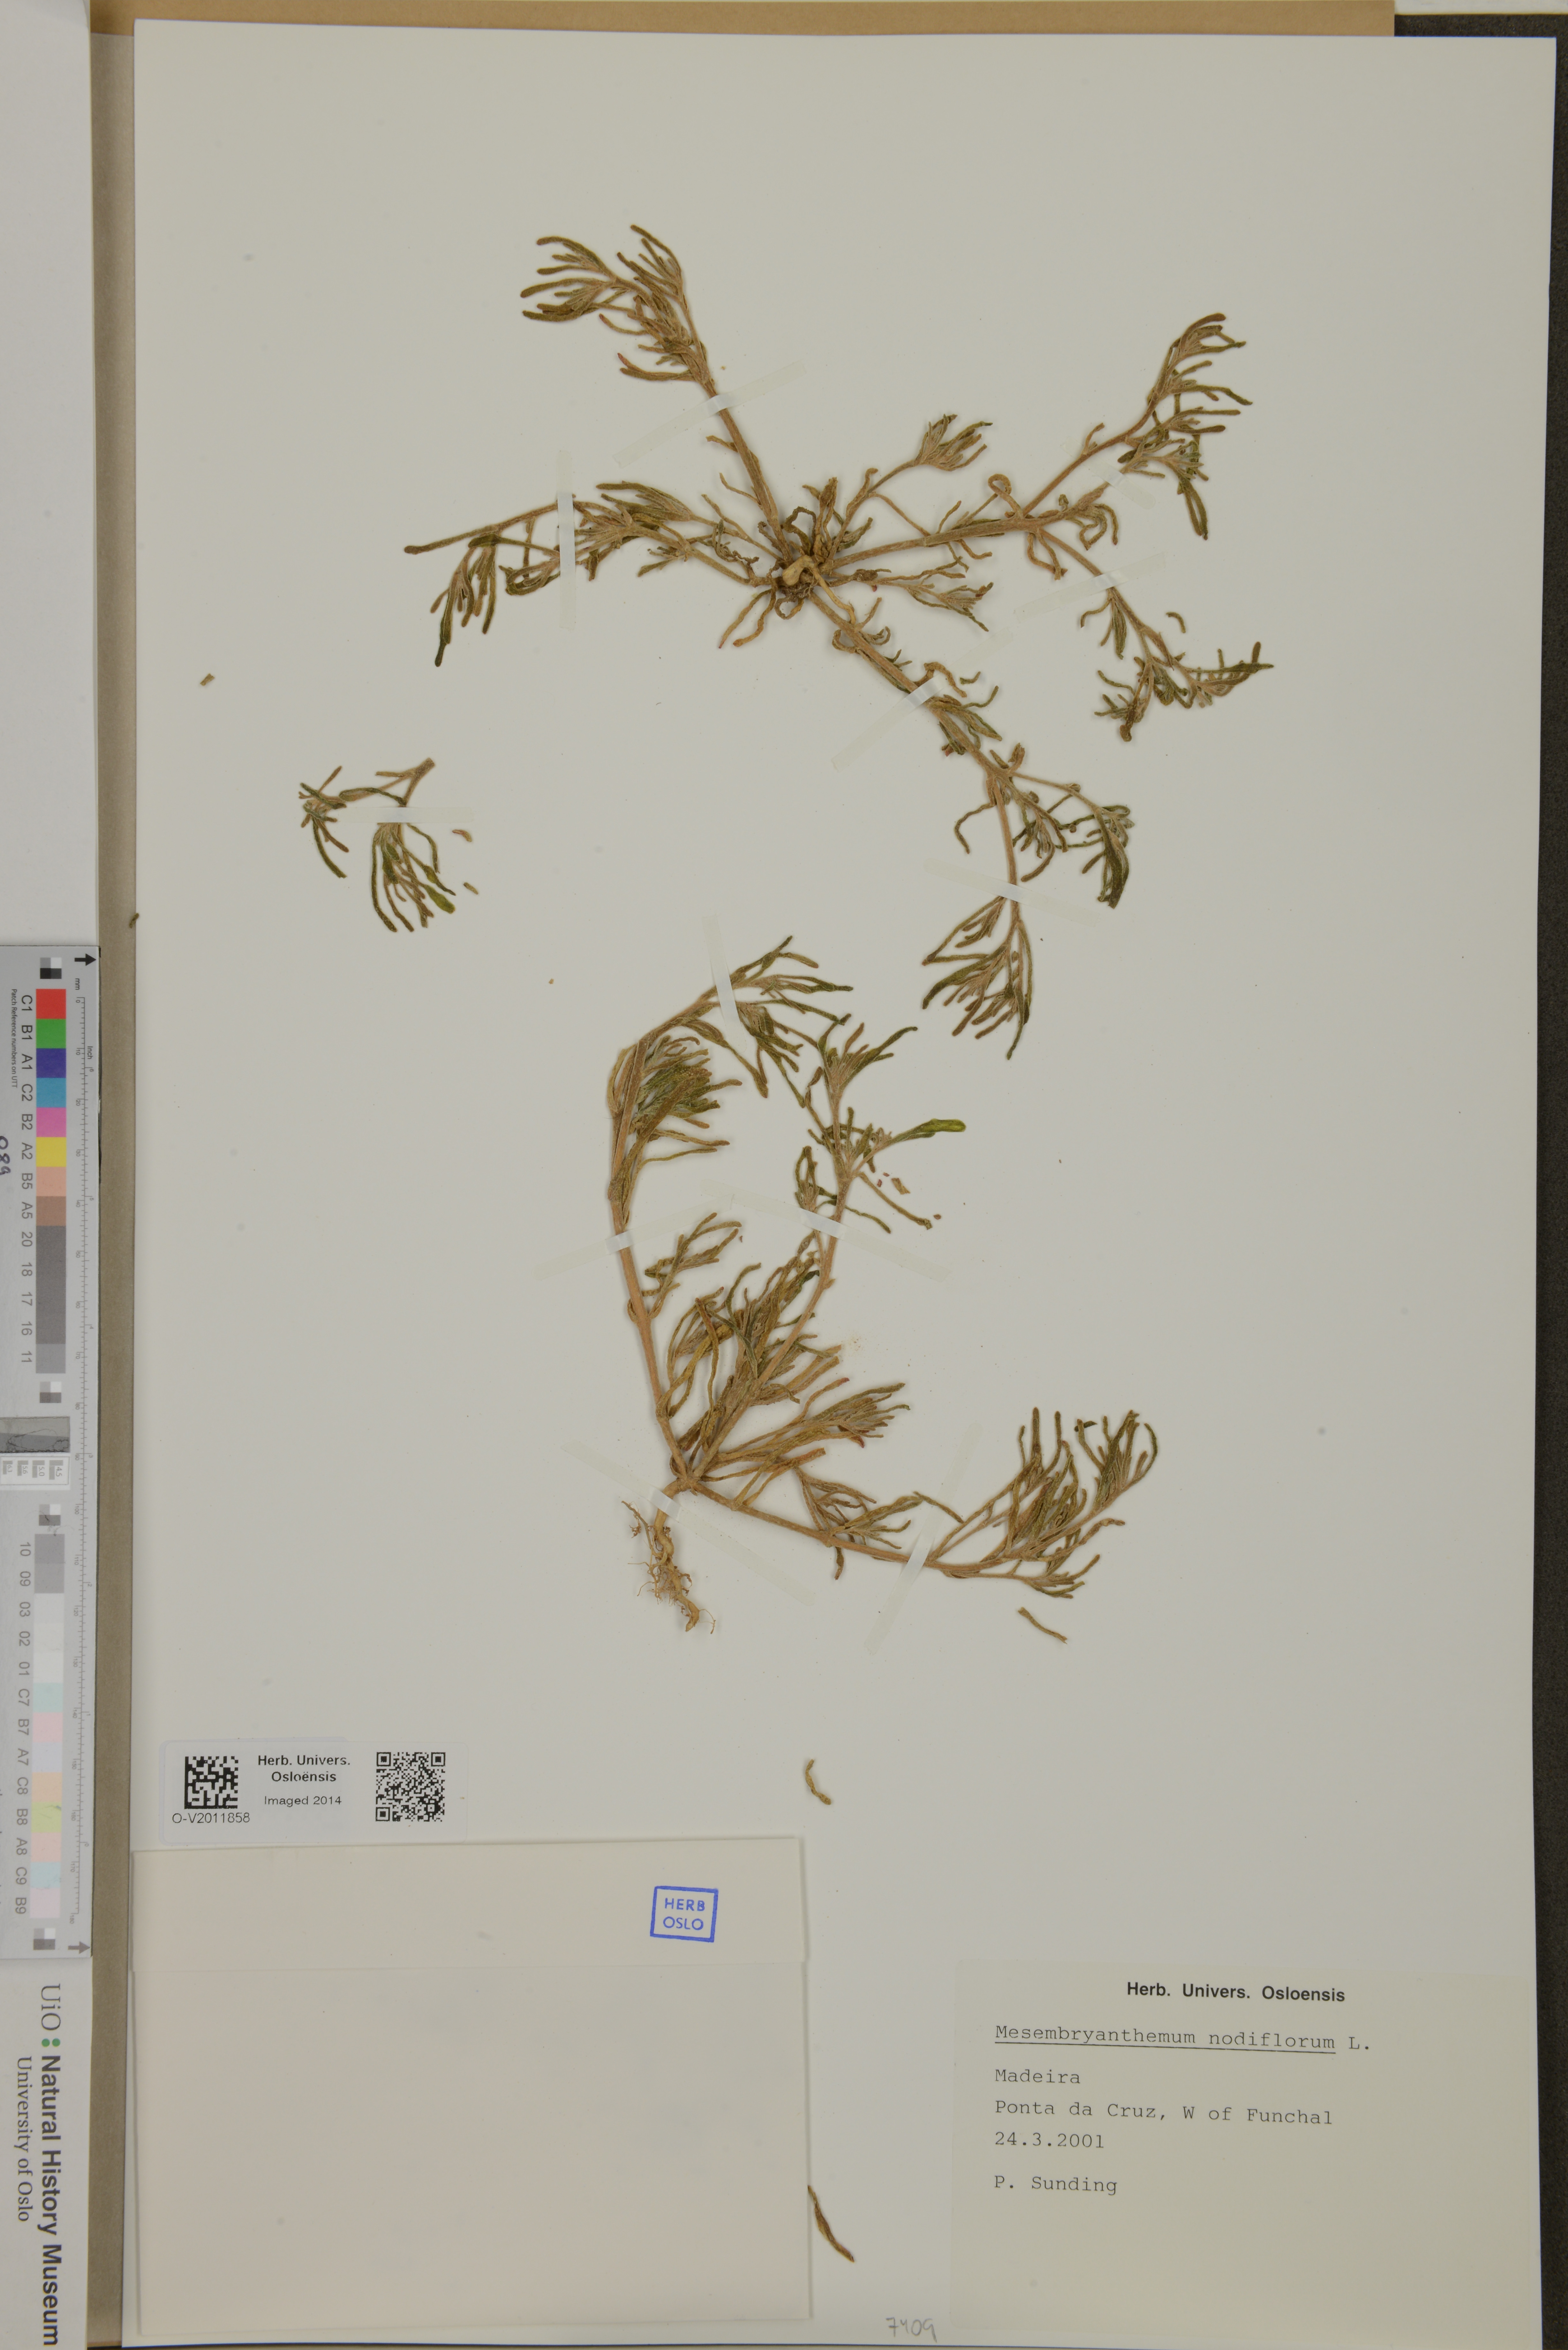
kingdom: Plantae
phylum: Tracheophyta
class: Magnoliopsida
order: Caryophyllales
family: Aizoaceae
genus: Mesembryanthemum
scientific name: Mesembryanthemum nodiflorum
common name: Slenderleaf iceplant
